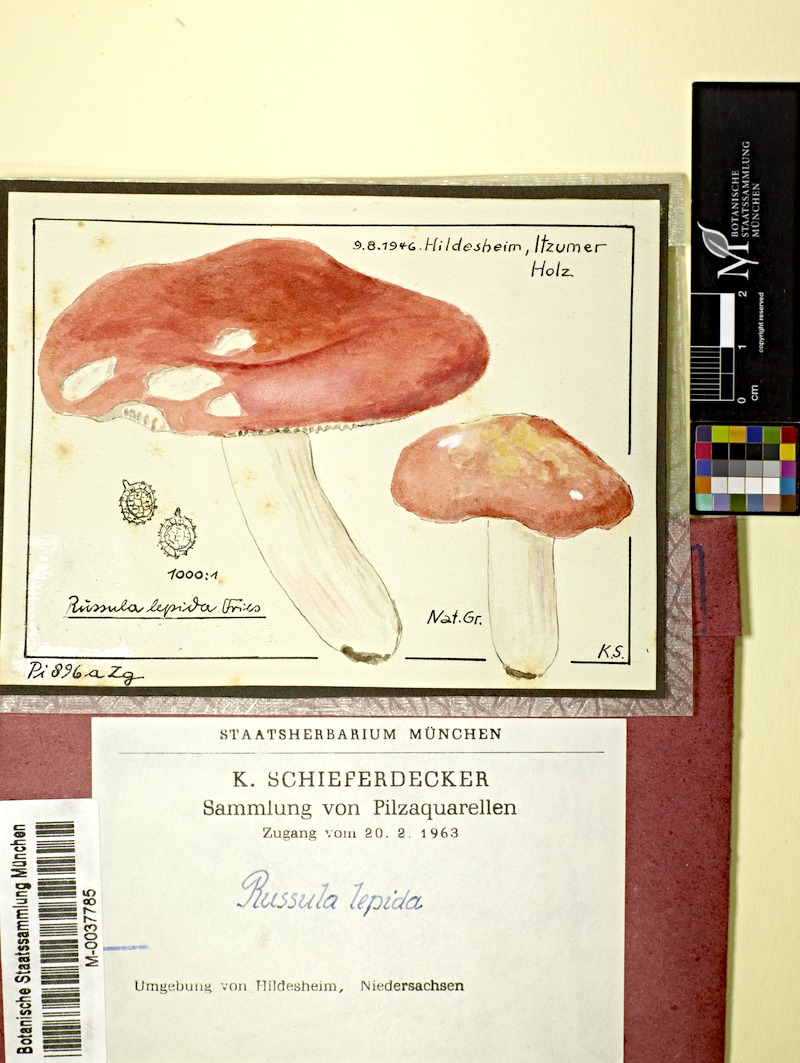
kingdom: Fungi
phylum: Basidiomycota
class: Agaricomycetes
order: Russulales
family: Russulaceae
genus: Russula
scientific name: Russula rosea
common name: Rosy brittlegill
